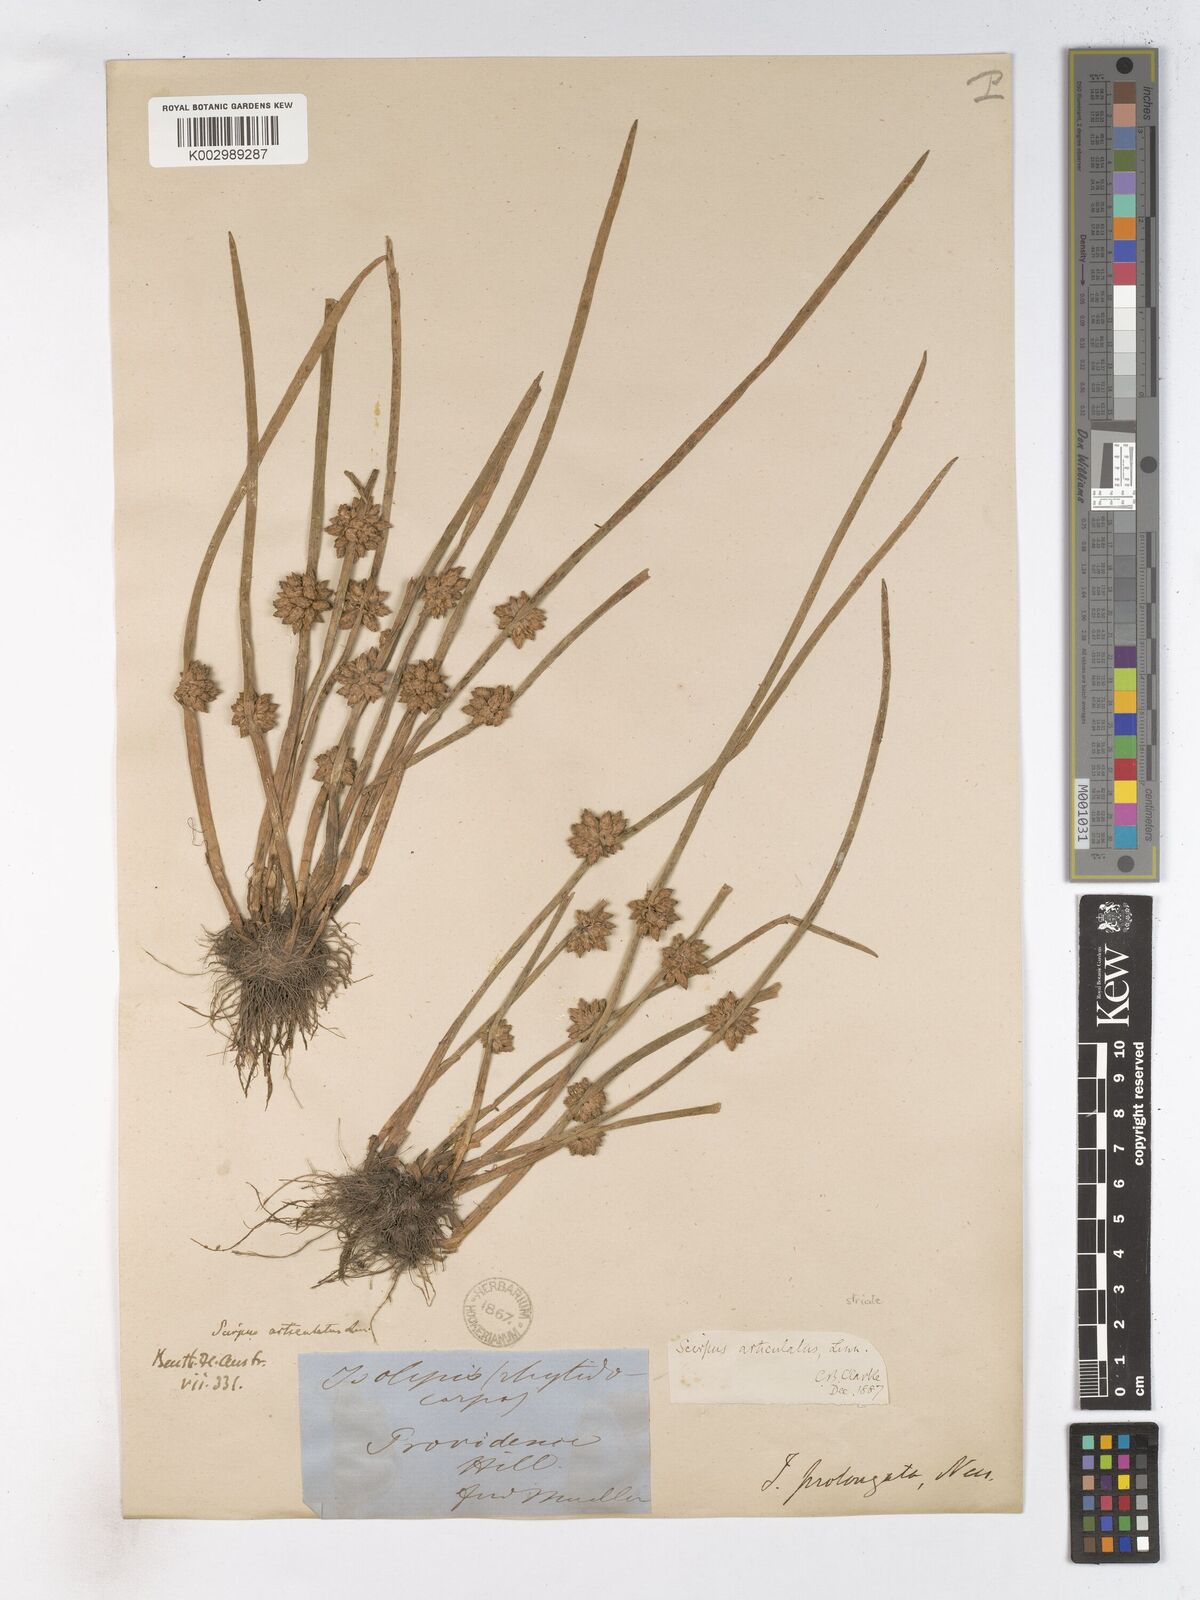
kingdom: Plantae
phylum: Tracheophyta
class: Liliopsida
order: Poales
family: Cyperaceae
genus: Schoenoplectiella
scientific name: Schoenoplectiella articulata
